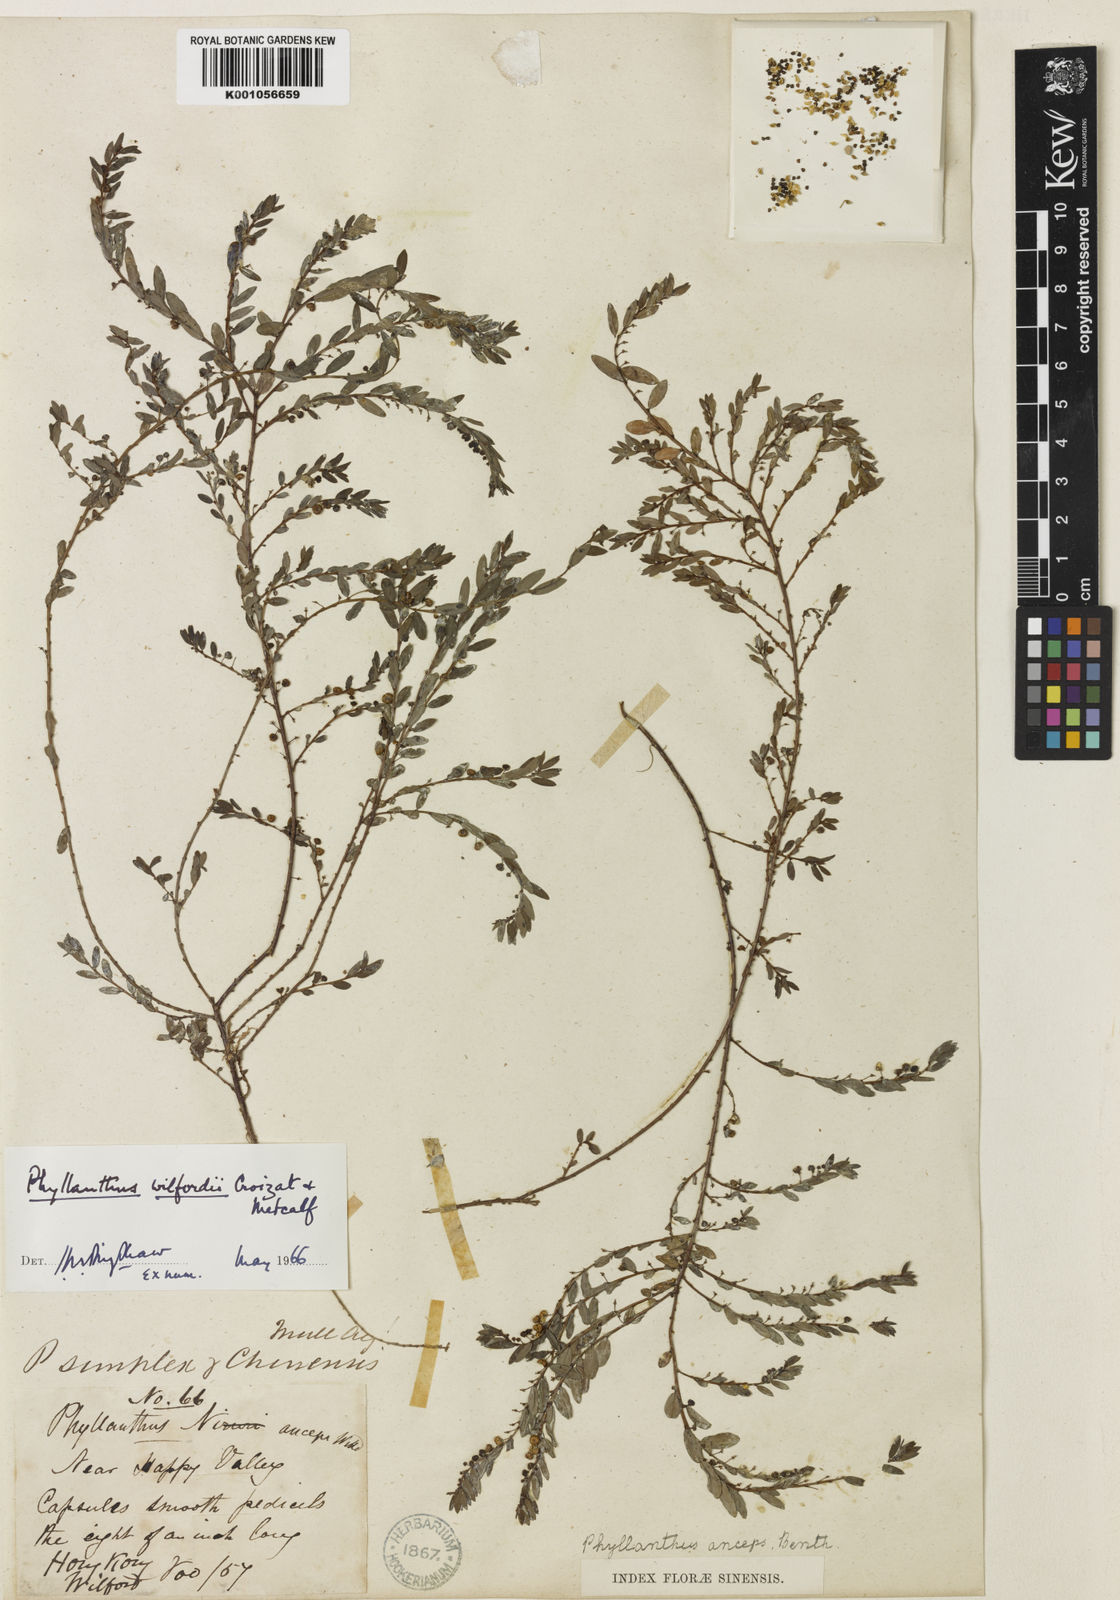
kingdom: Plantae
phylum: Tracheophyta
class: Magnoliopsida
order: Malpighiales
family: Phyllanthaceae
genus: Phyllanthus
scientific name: Phyllanthus ussuriensis
